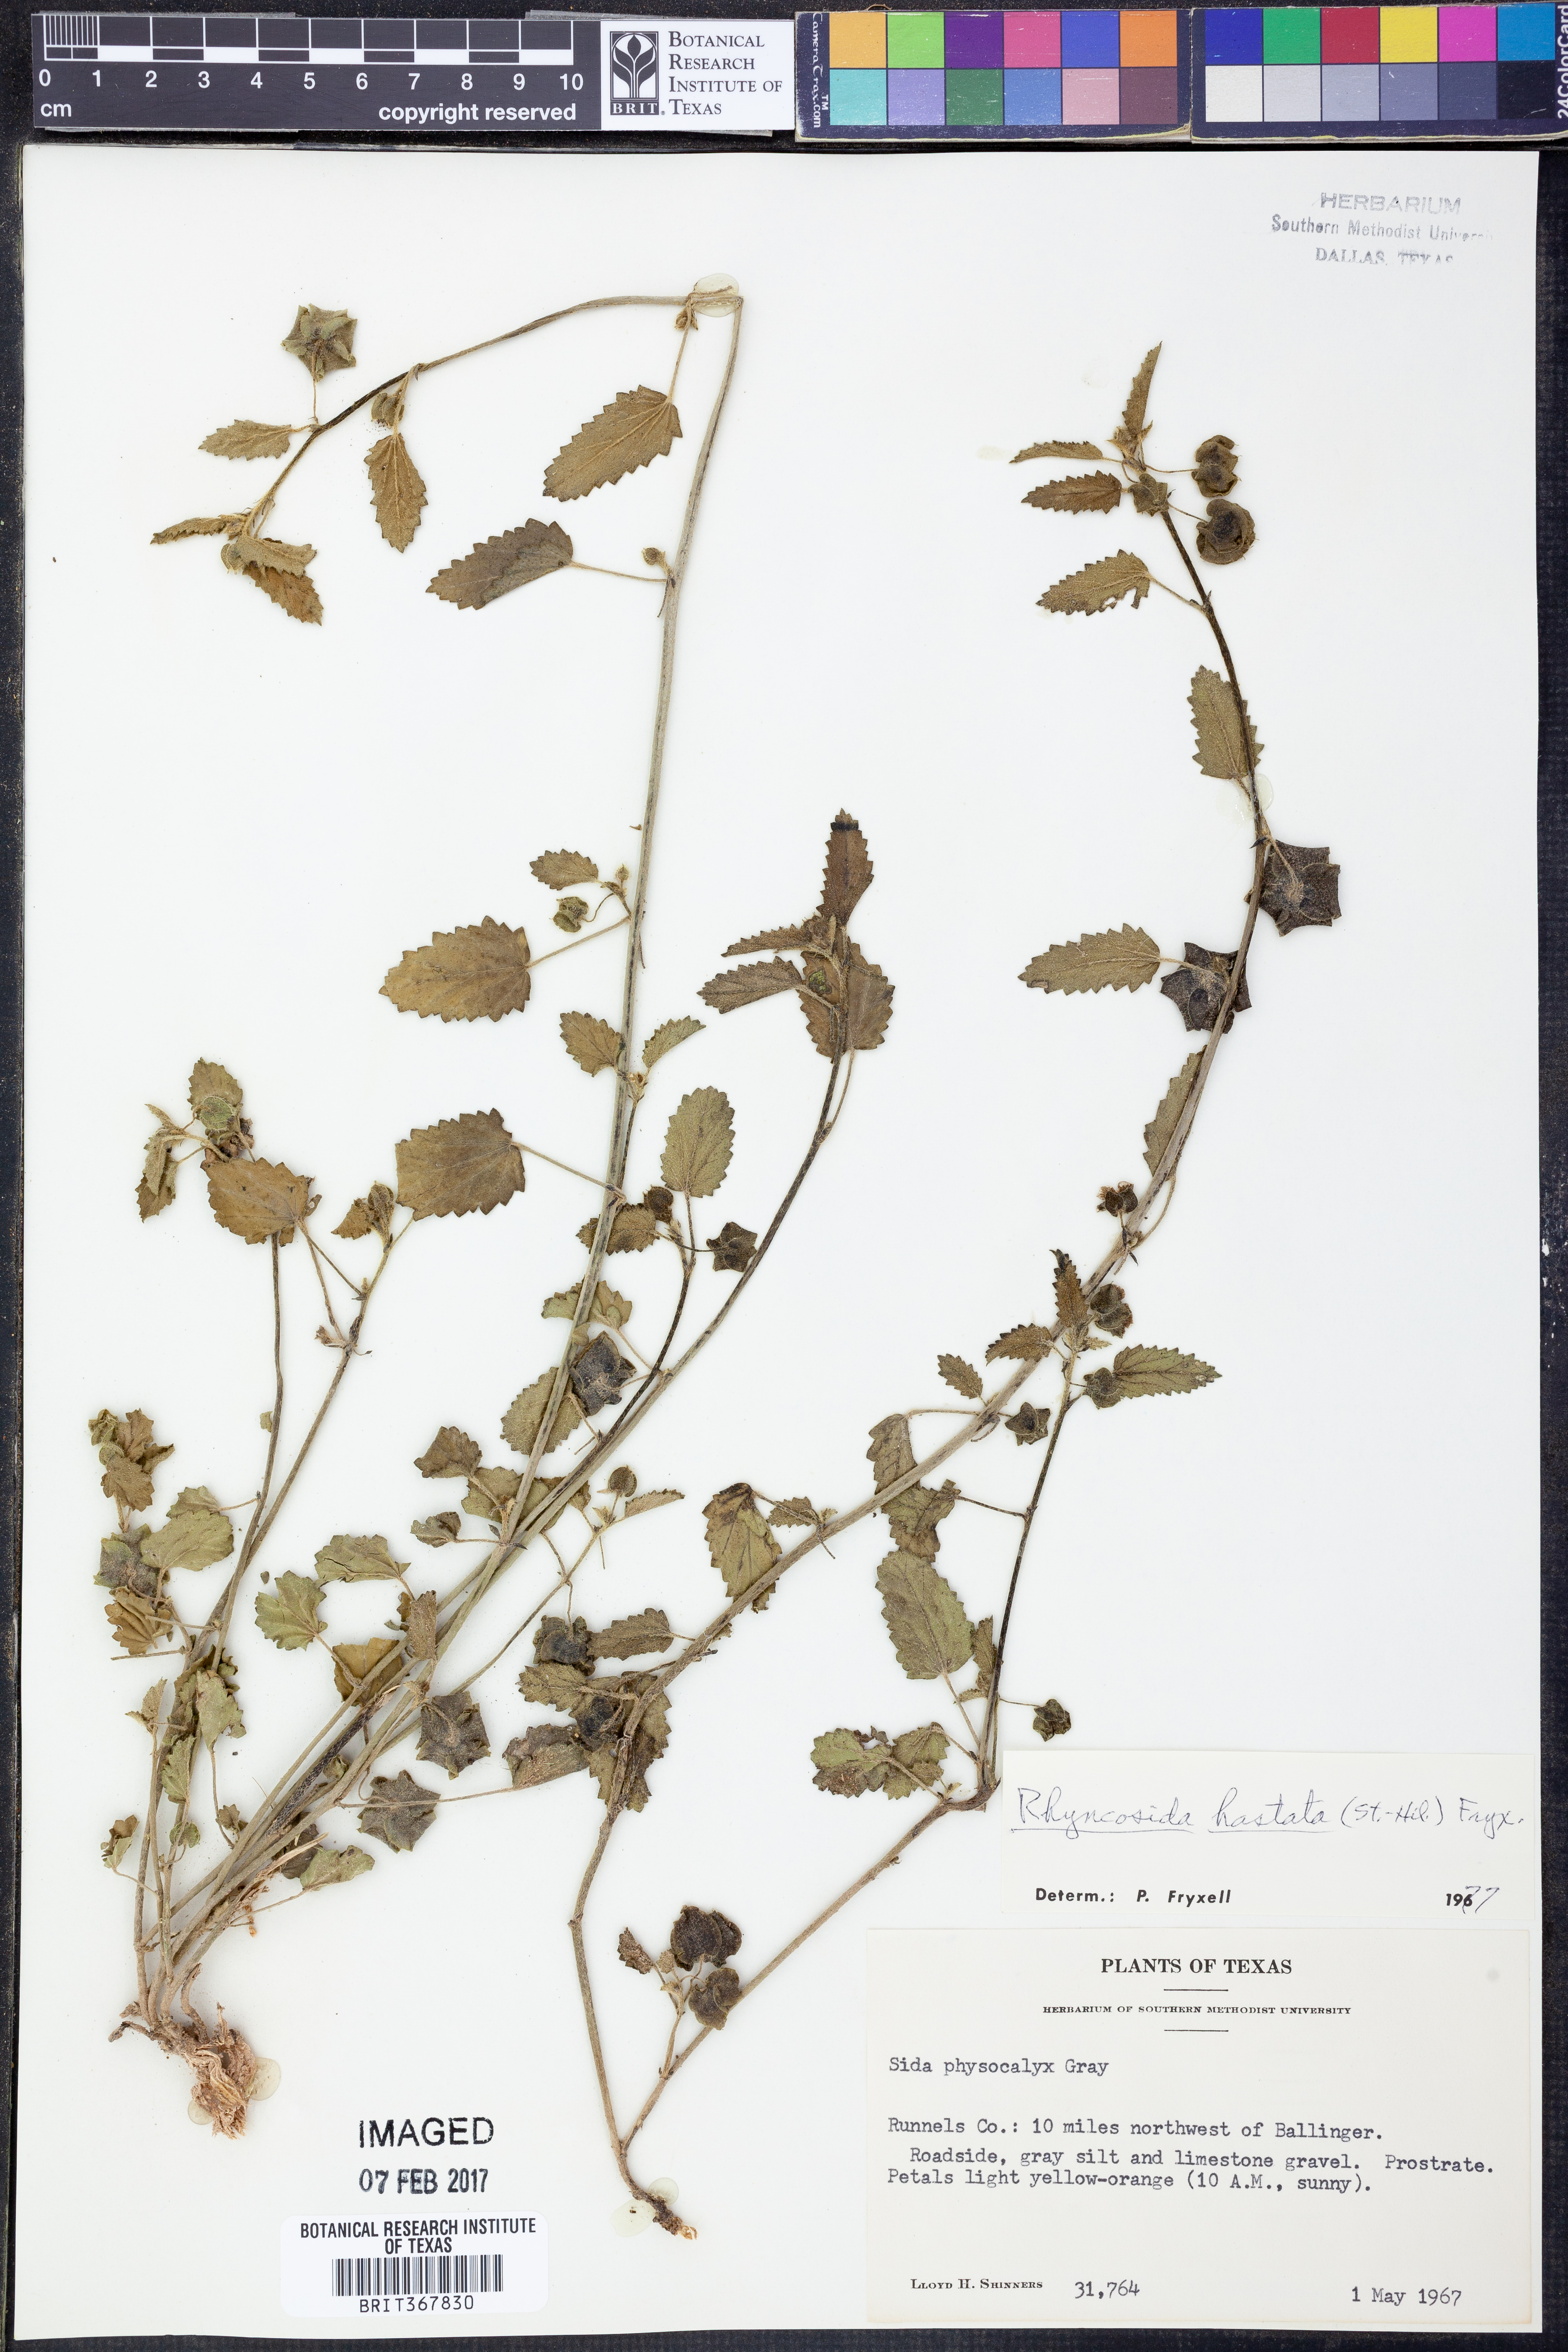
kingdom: Plantae
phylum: Tracheophyta
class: Magnoliopsida
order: Malvales
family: Malvaceae
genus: Rhynchosida
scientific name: Rhynchosida
